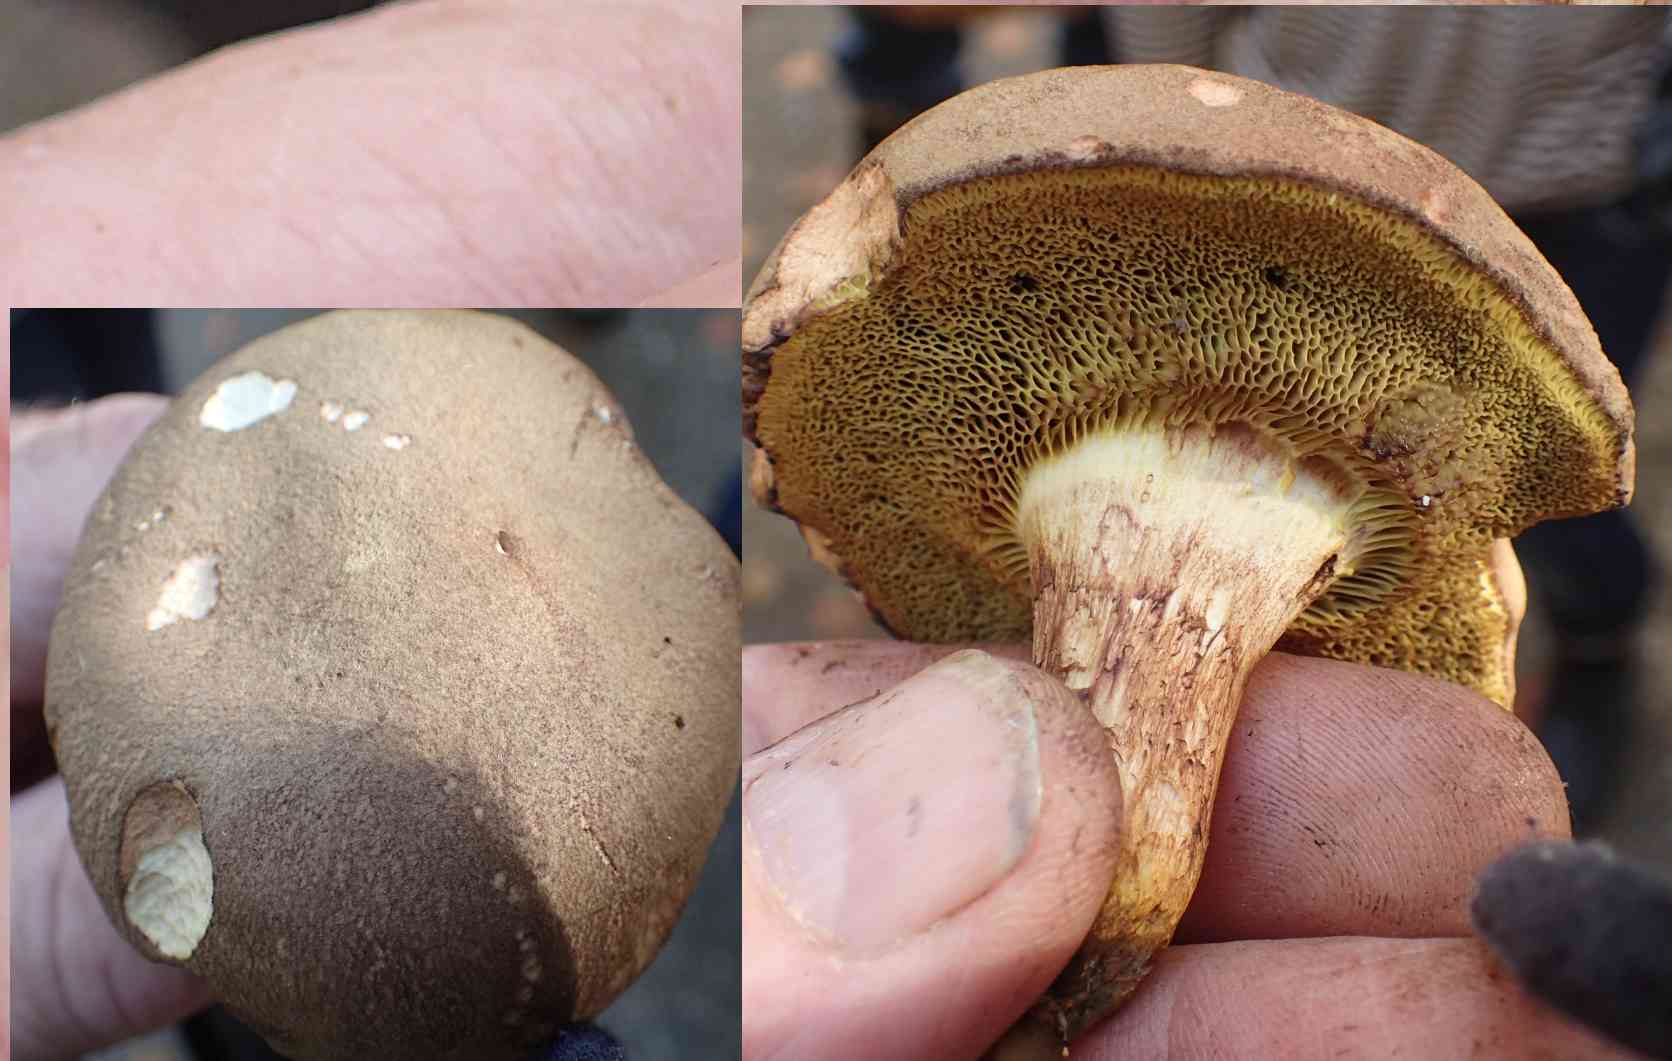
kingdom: Fungi
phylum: Basidiomycota
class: Agaricomycetes
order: Boletales
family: Boletaceae
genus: Xerocomus
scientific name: Xerocomus
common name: filtrørhat
